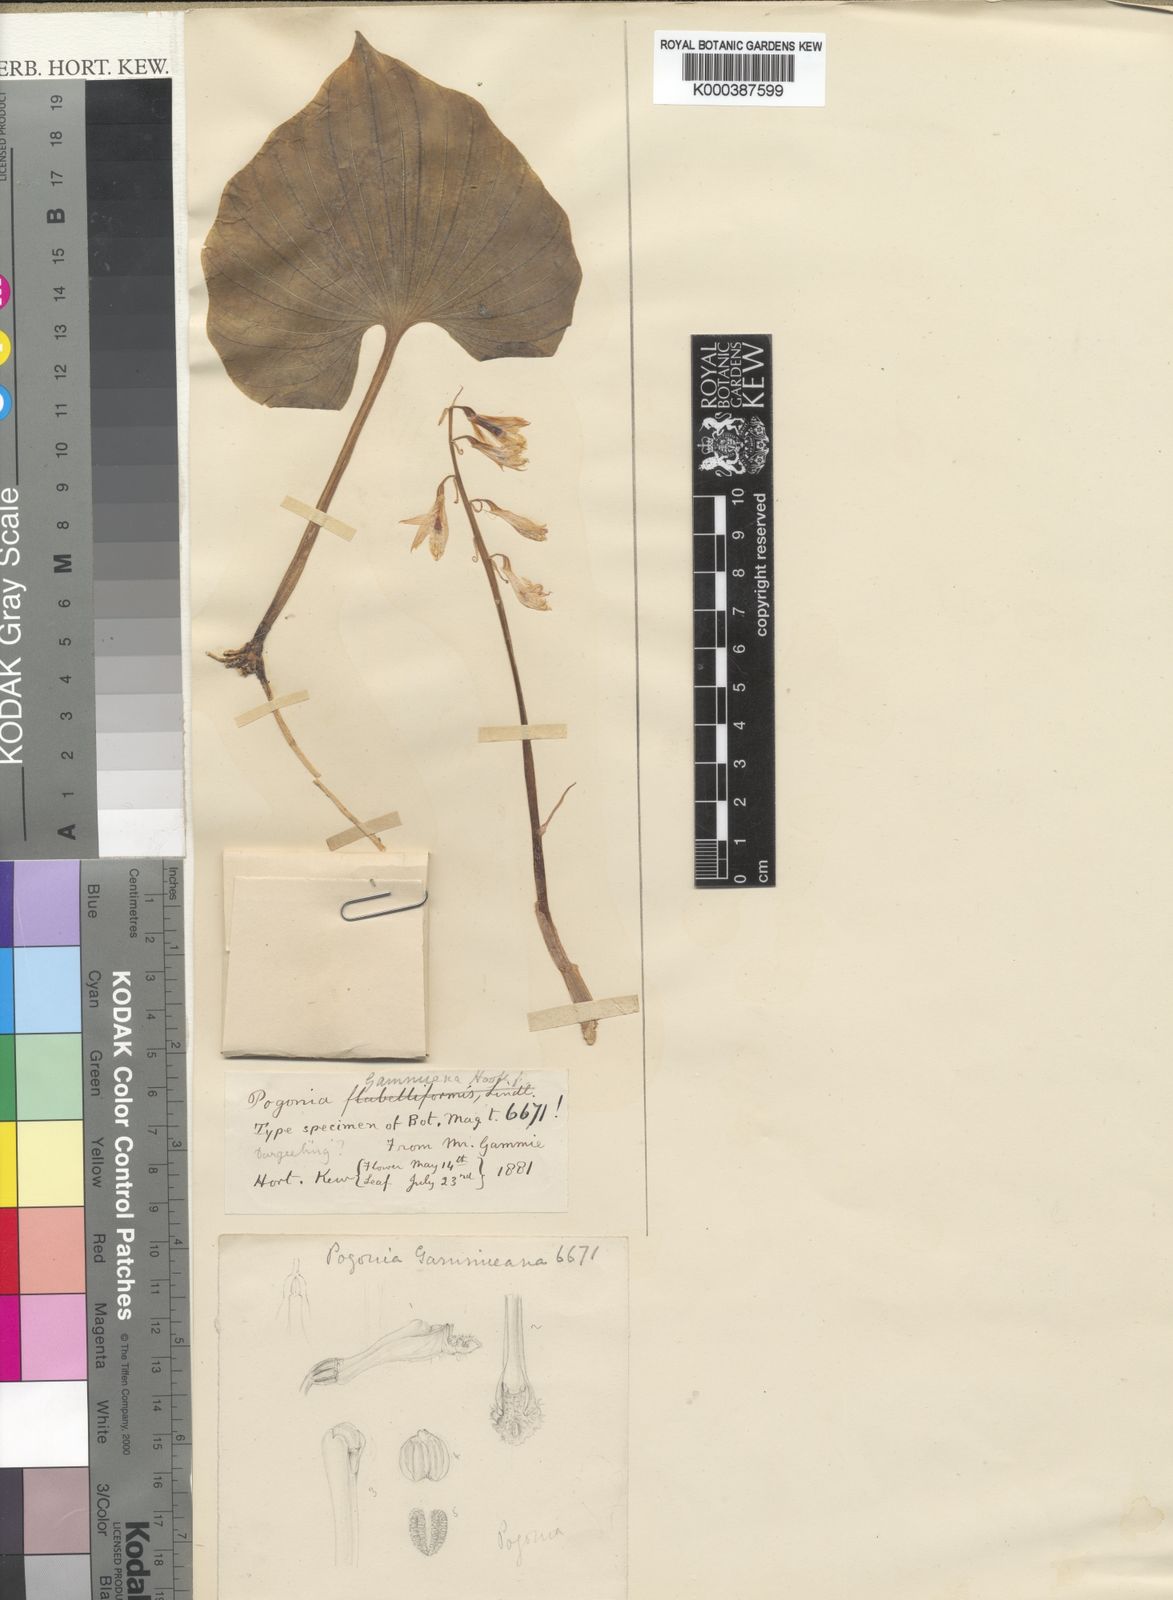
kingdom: Plantae
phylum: Tracheophyta
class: Liliopsida
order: Asparagales
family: Orchidaceae
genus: Nervilia
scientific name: Nervilia gammieana
